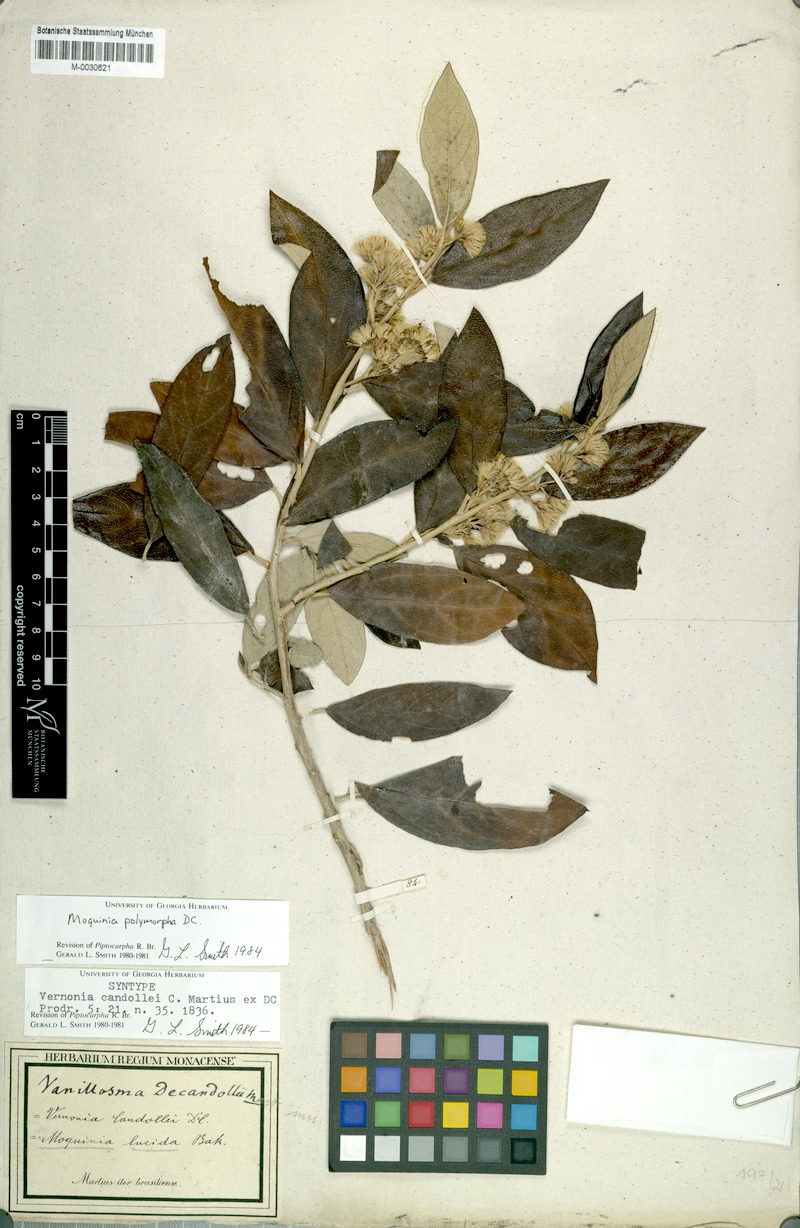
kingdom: Plantae
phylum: Tracheophyta
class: Magnoliopsida
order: Asterales
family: Asteraceae
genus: Moquiniastrum
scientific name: Moquiniastrum polymorphum
